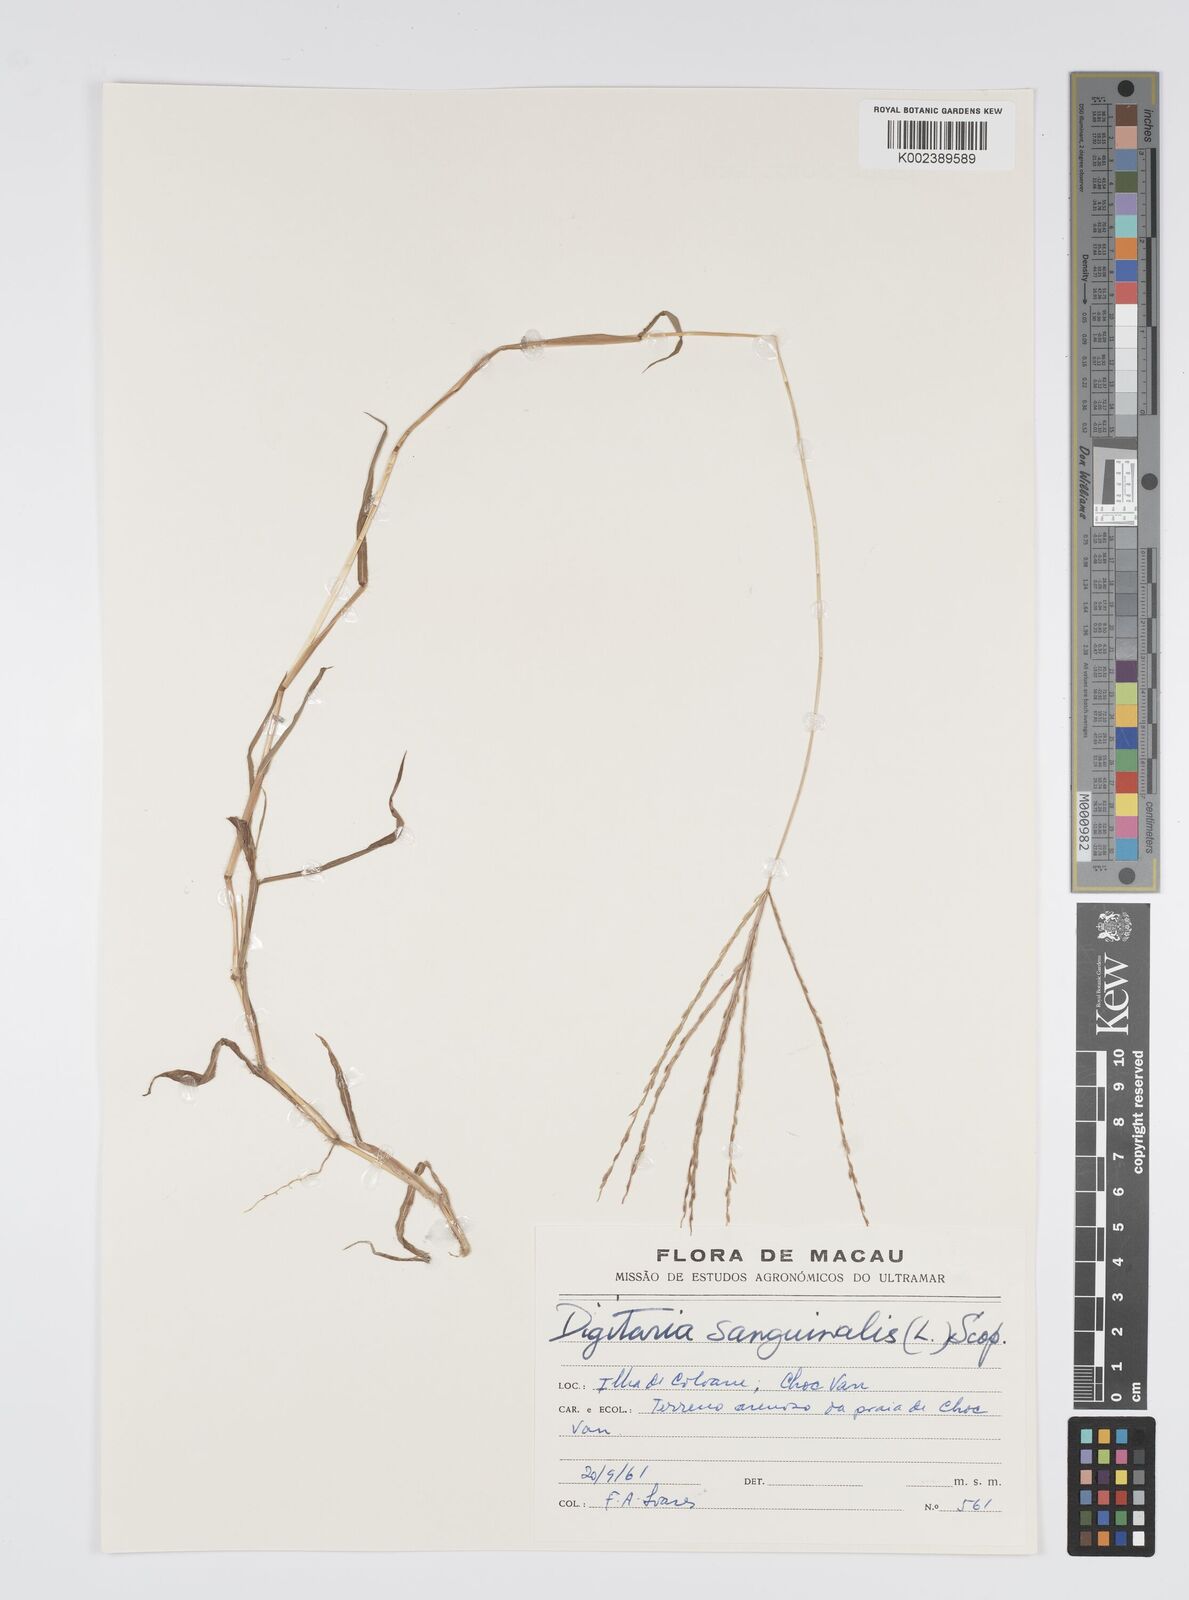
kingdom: Plantae
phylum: Tracheophyta
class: Liliopsida
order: Poales
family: Poaceae
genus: Digitaria
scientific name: Digitaria ciliaris
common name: Tropical finger-grass
